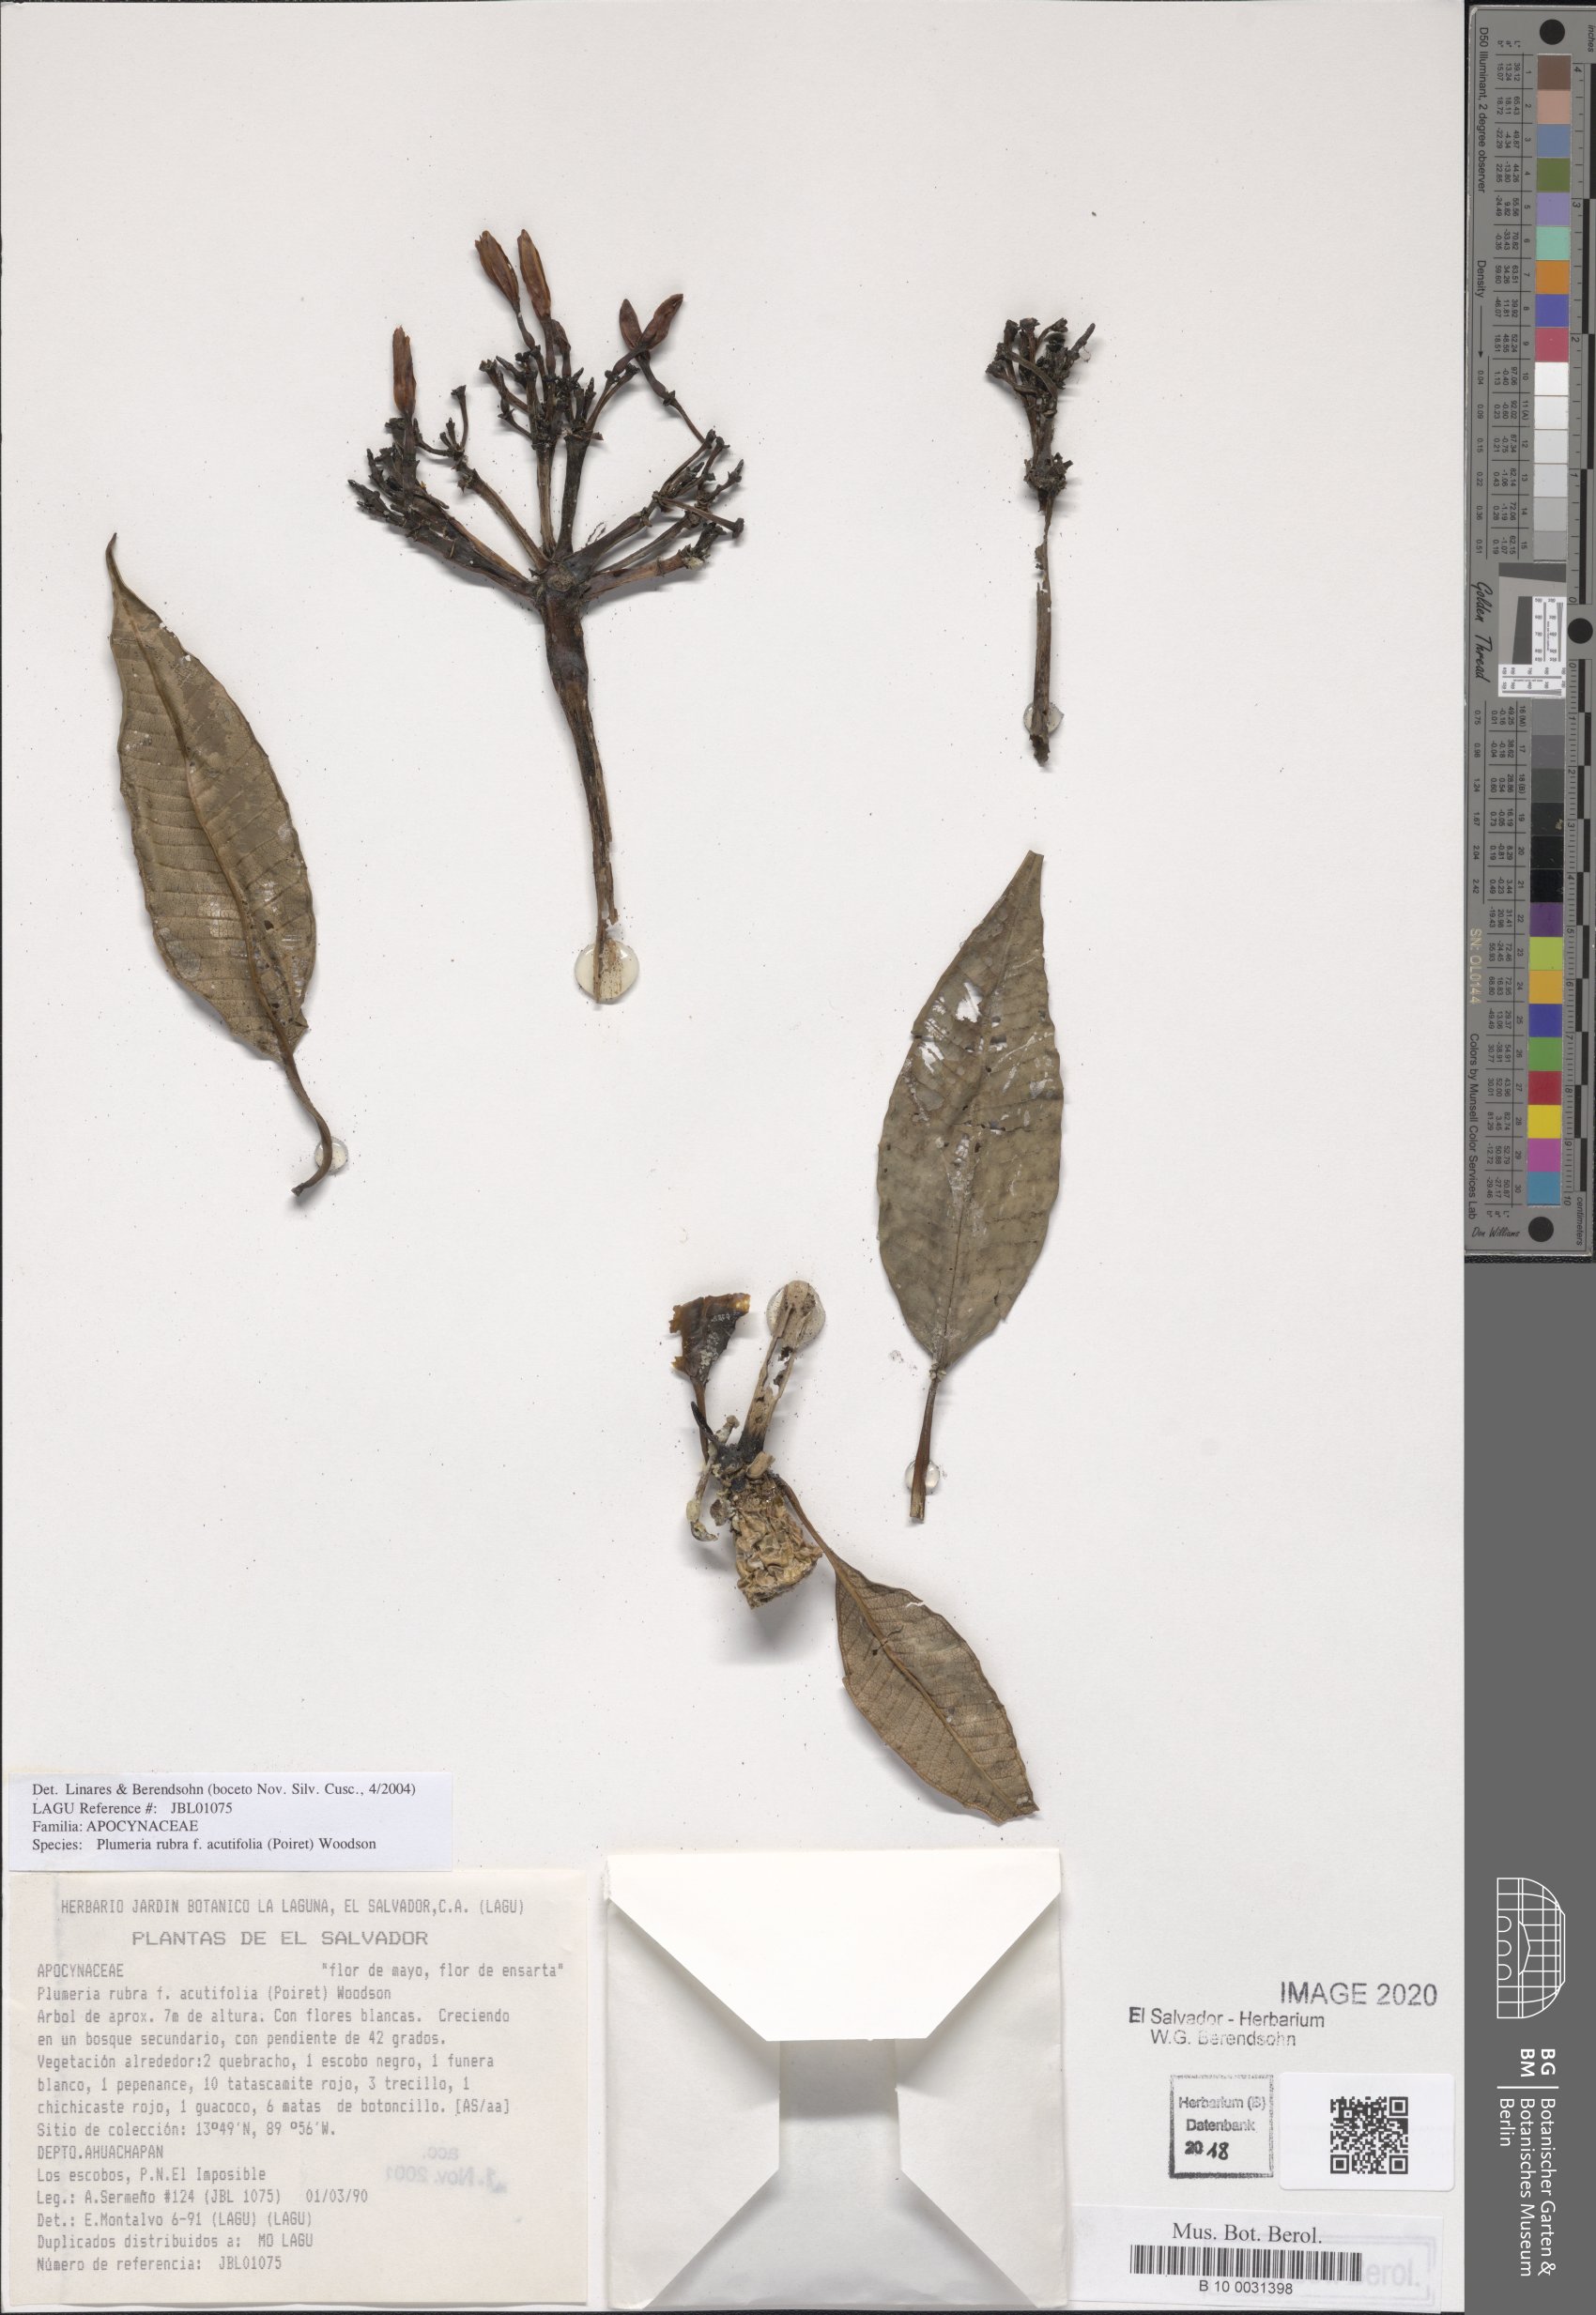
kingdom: Plantae
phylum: Tracheophyta
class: Magnoliopsida
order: Gentianales
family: Apocynaceae
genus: Plumeria
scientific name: Plumeria rubra
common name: Pagoda-tree
